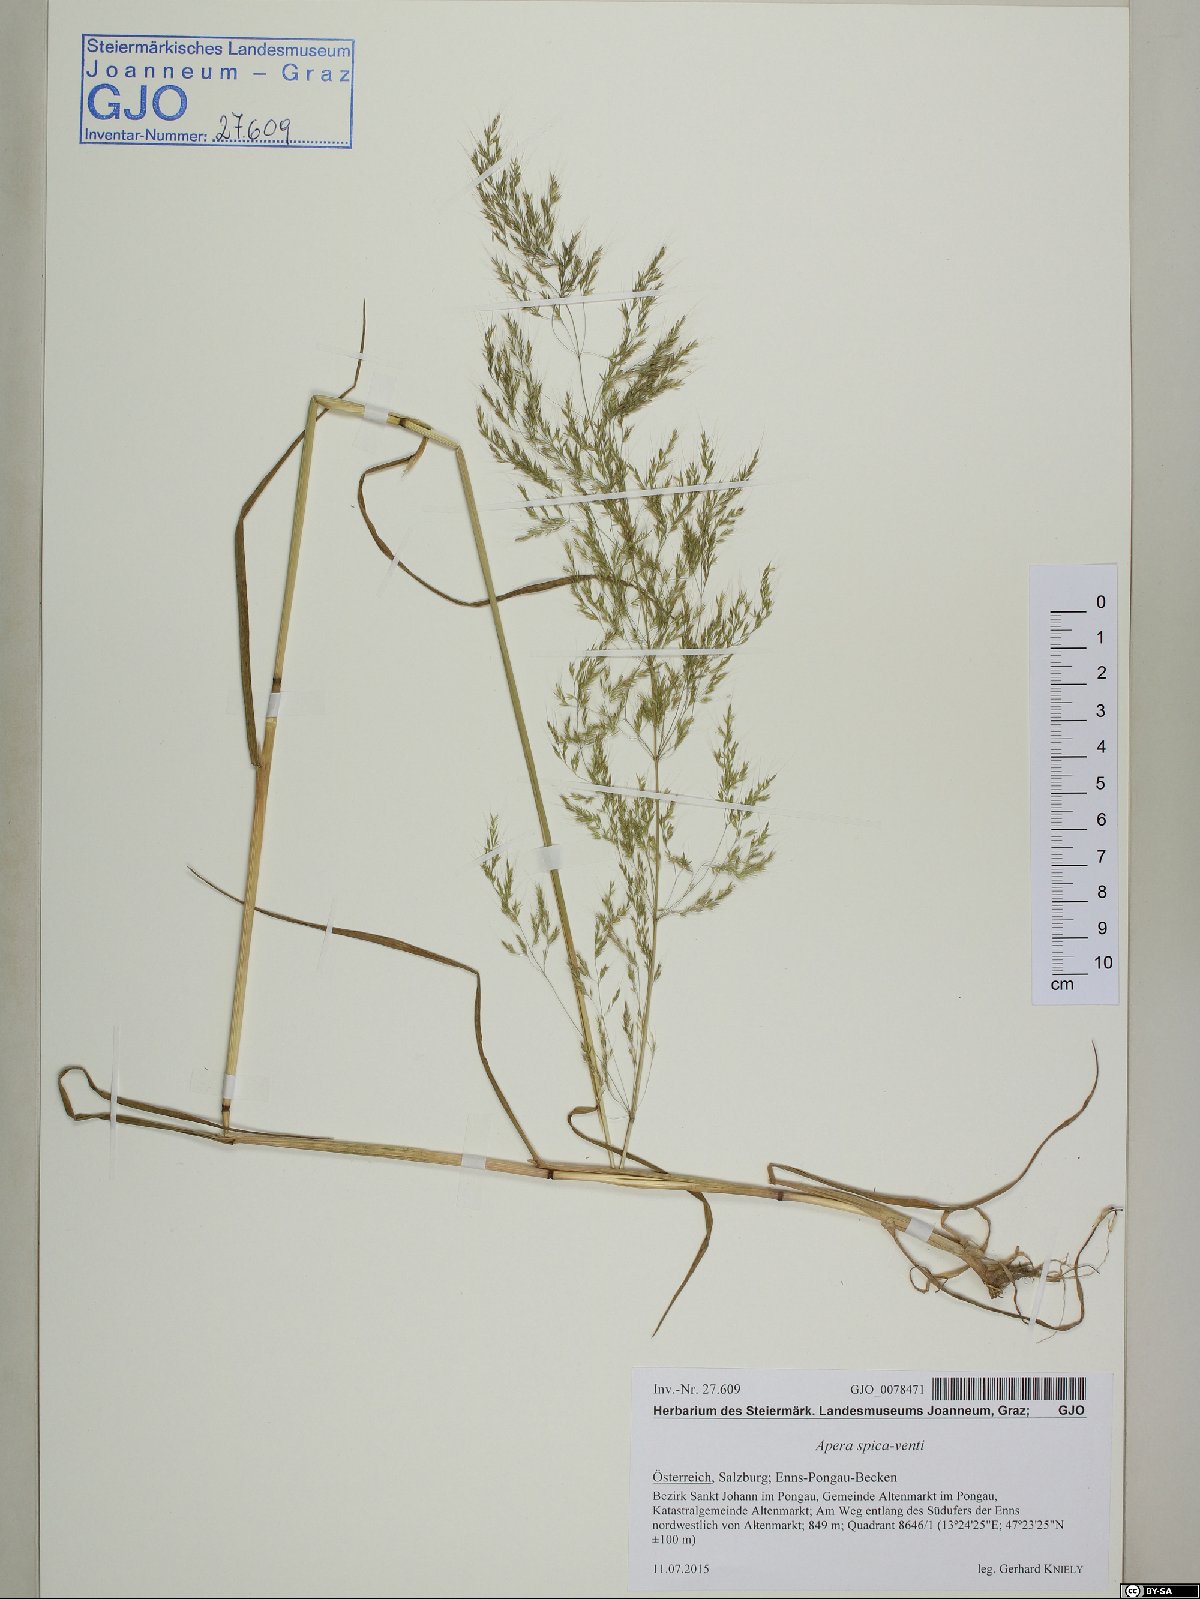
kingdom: Plantae
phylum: Tracheophyta
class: Liliopsida
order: Poales
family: Poaceae
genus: Apera
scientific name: Apera spica-venti
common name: Loose silky-bent
